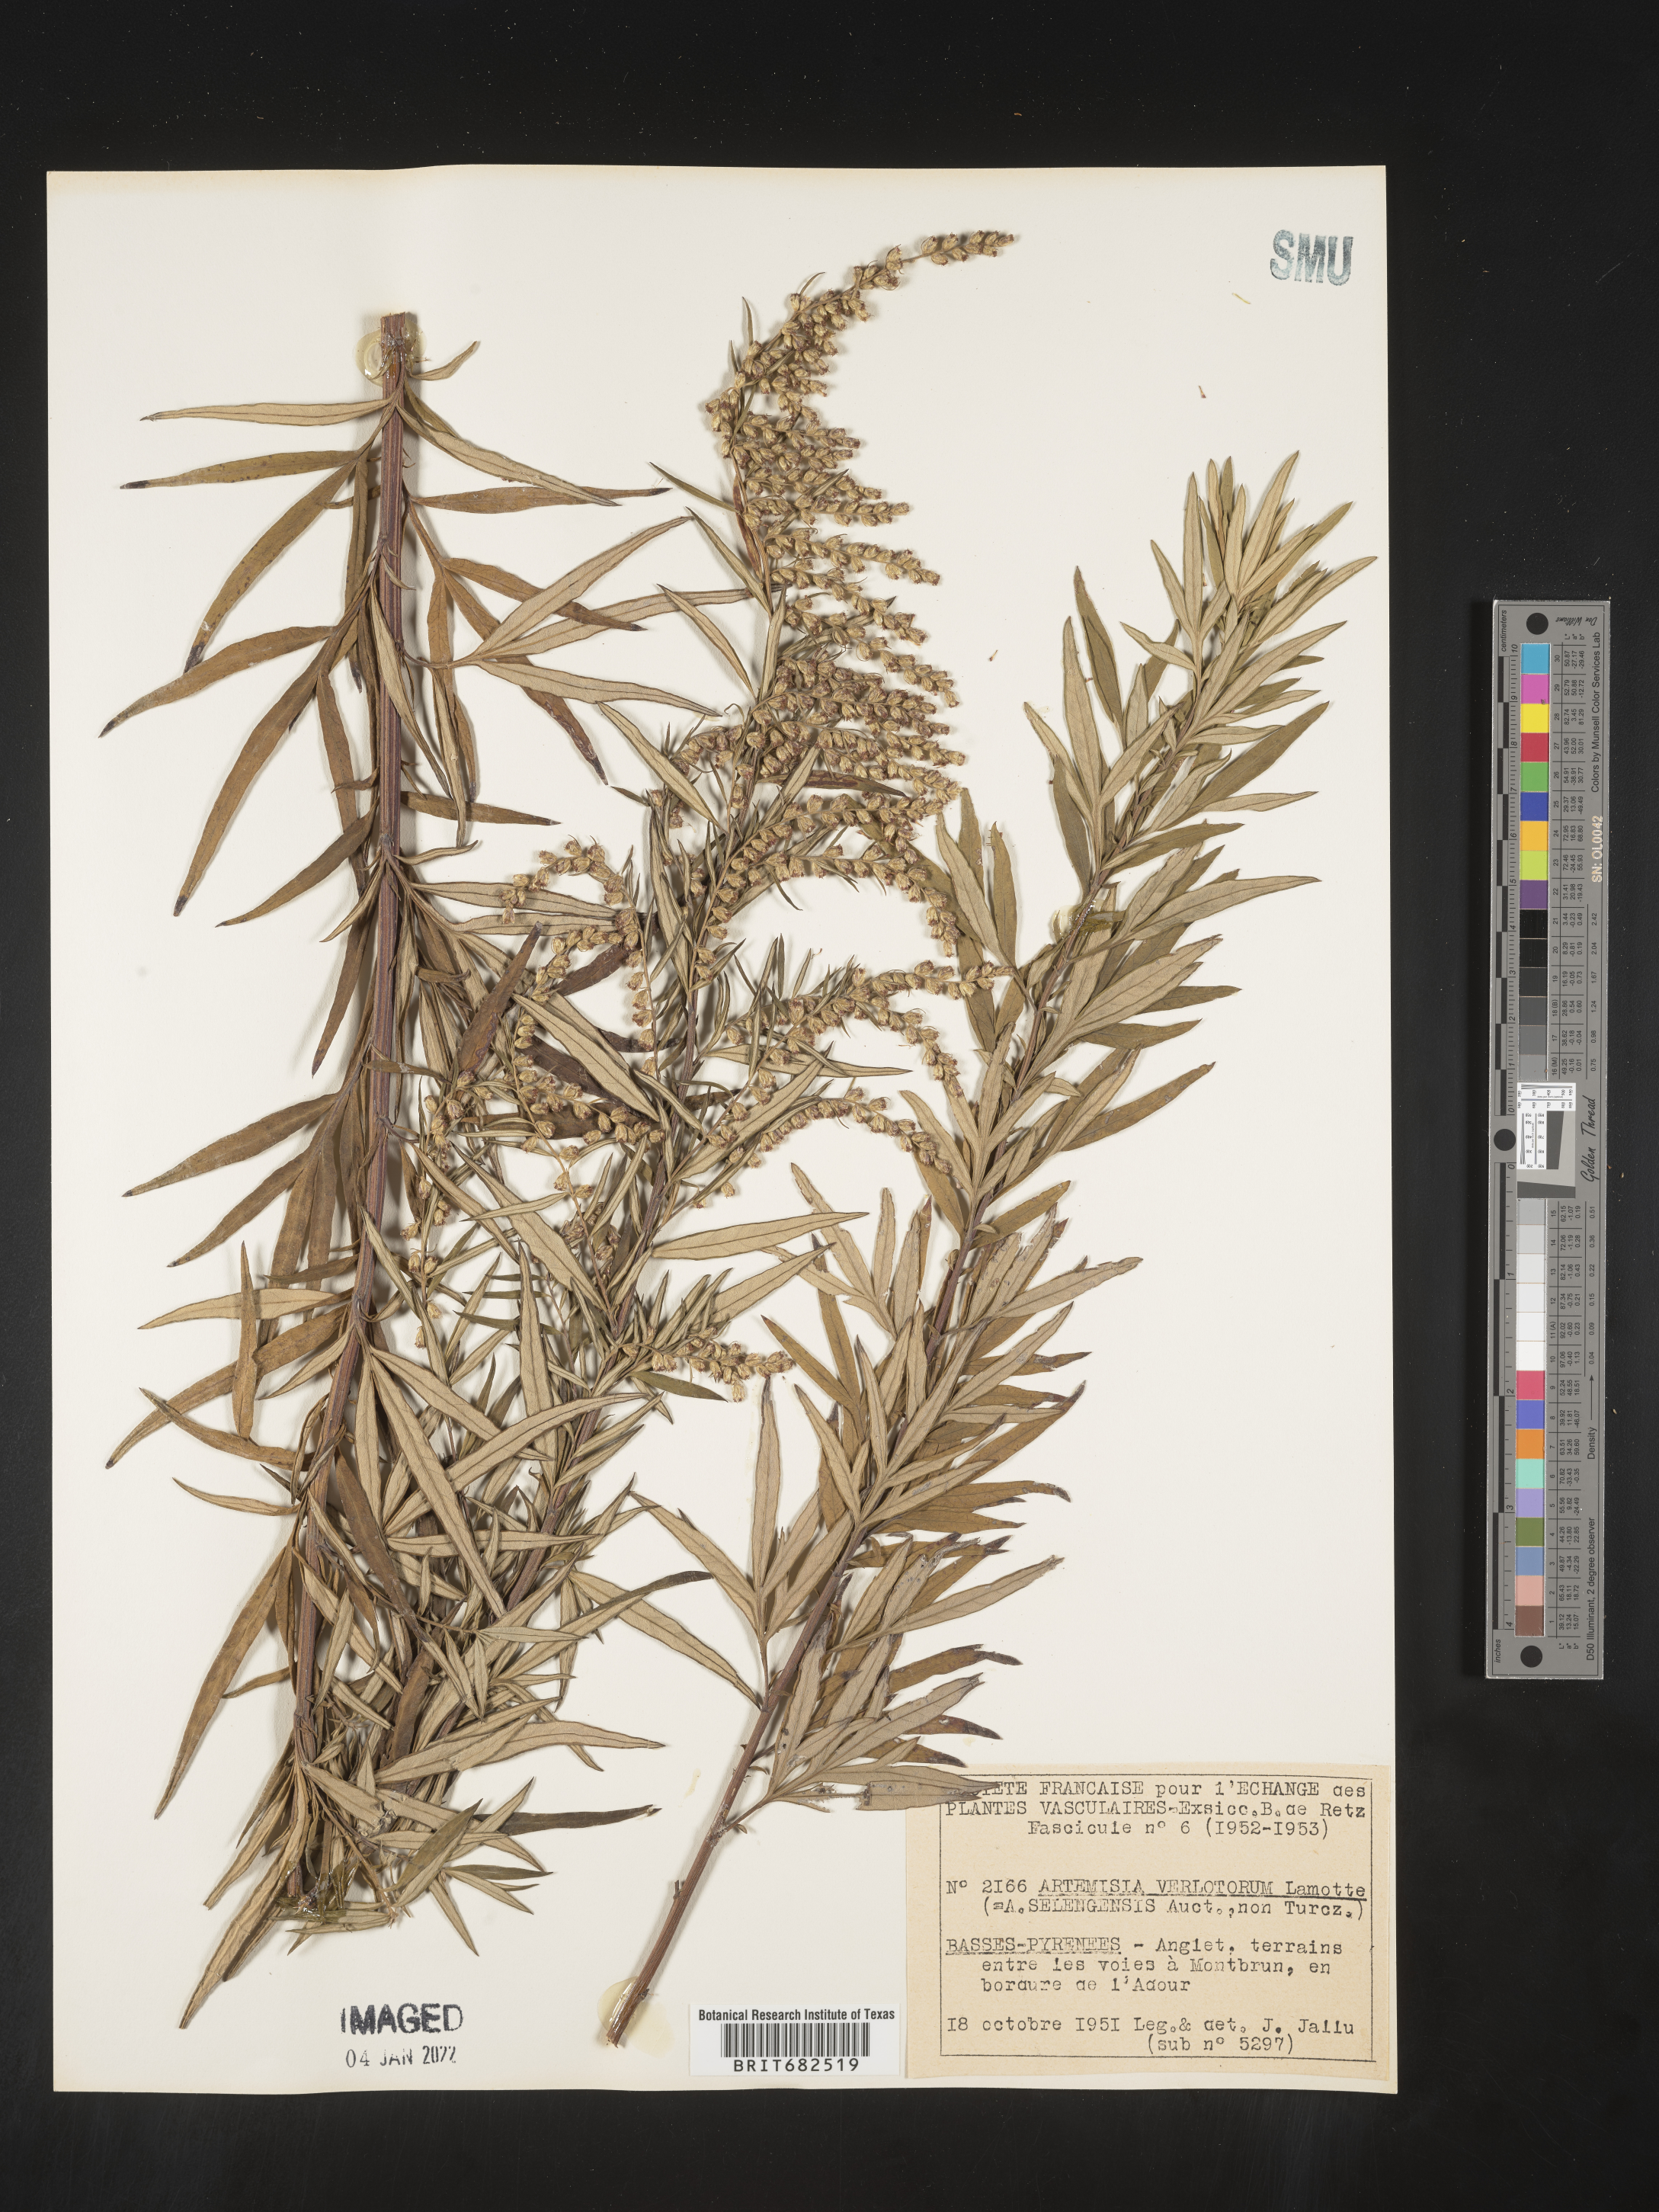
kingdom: Plantae
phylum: Tracheophyta
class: Magnoliopsida
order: Asterales
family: Asteraceae
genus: Artemisia
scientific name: Artemisia
